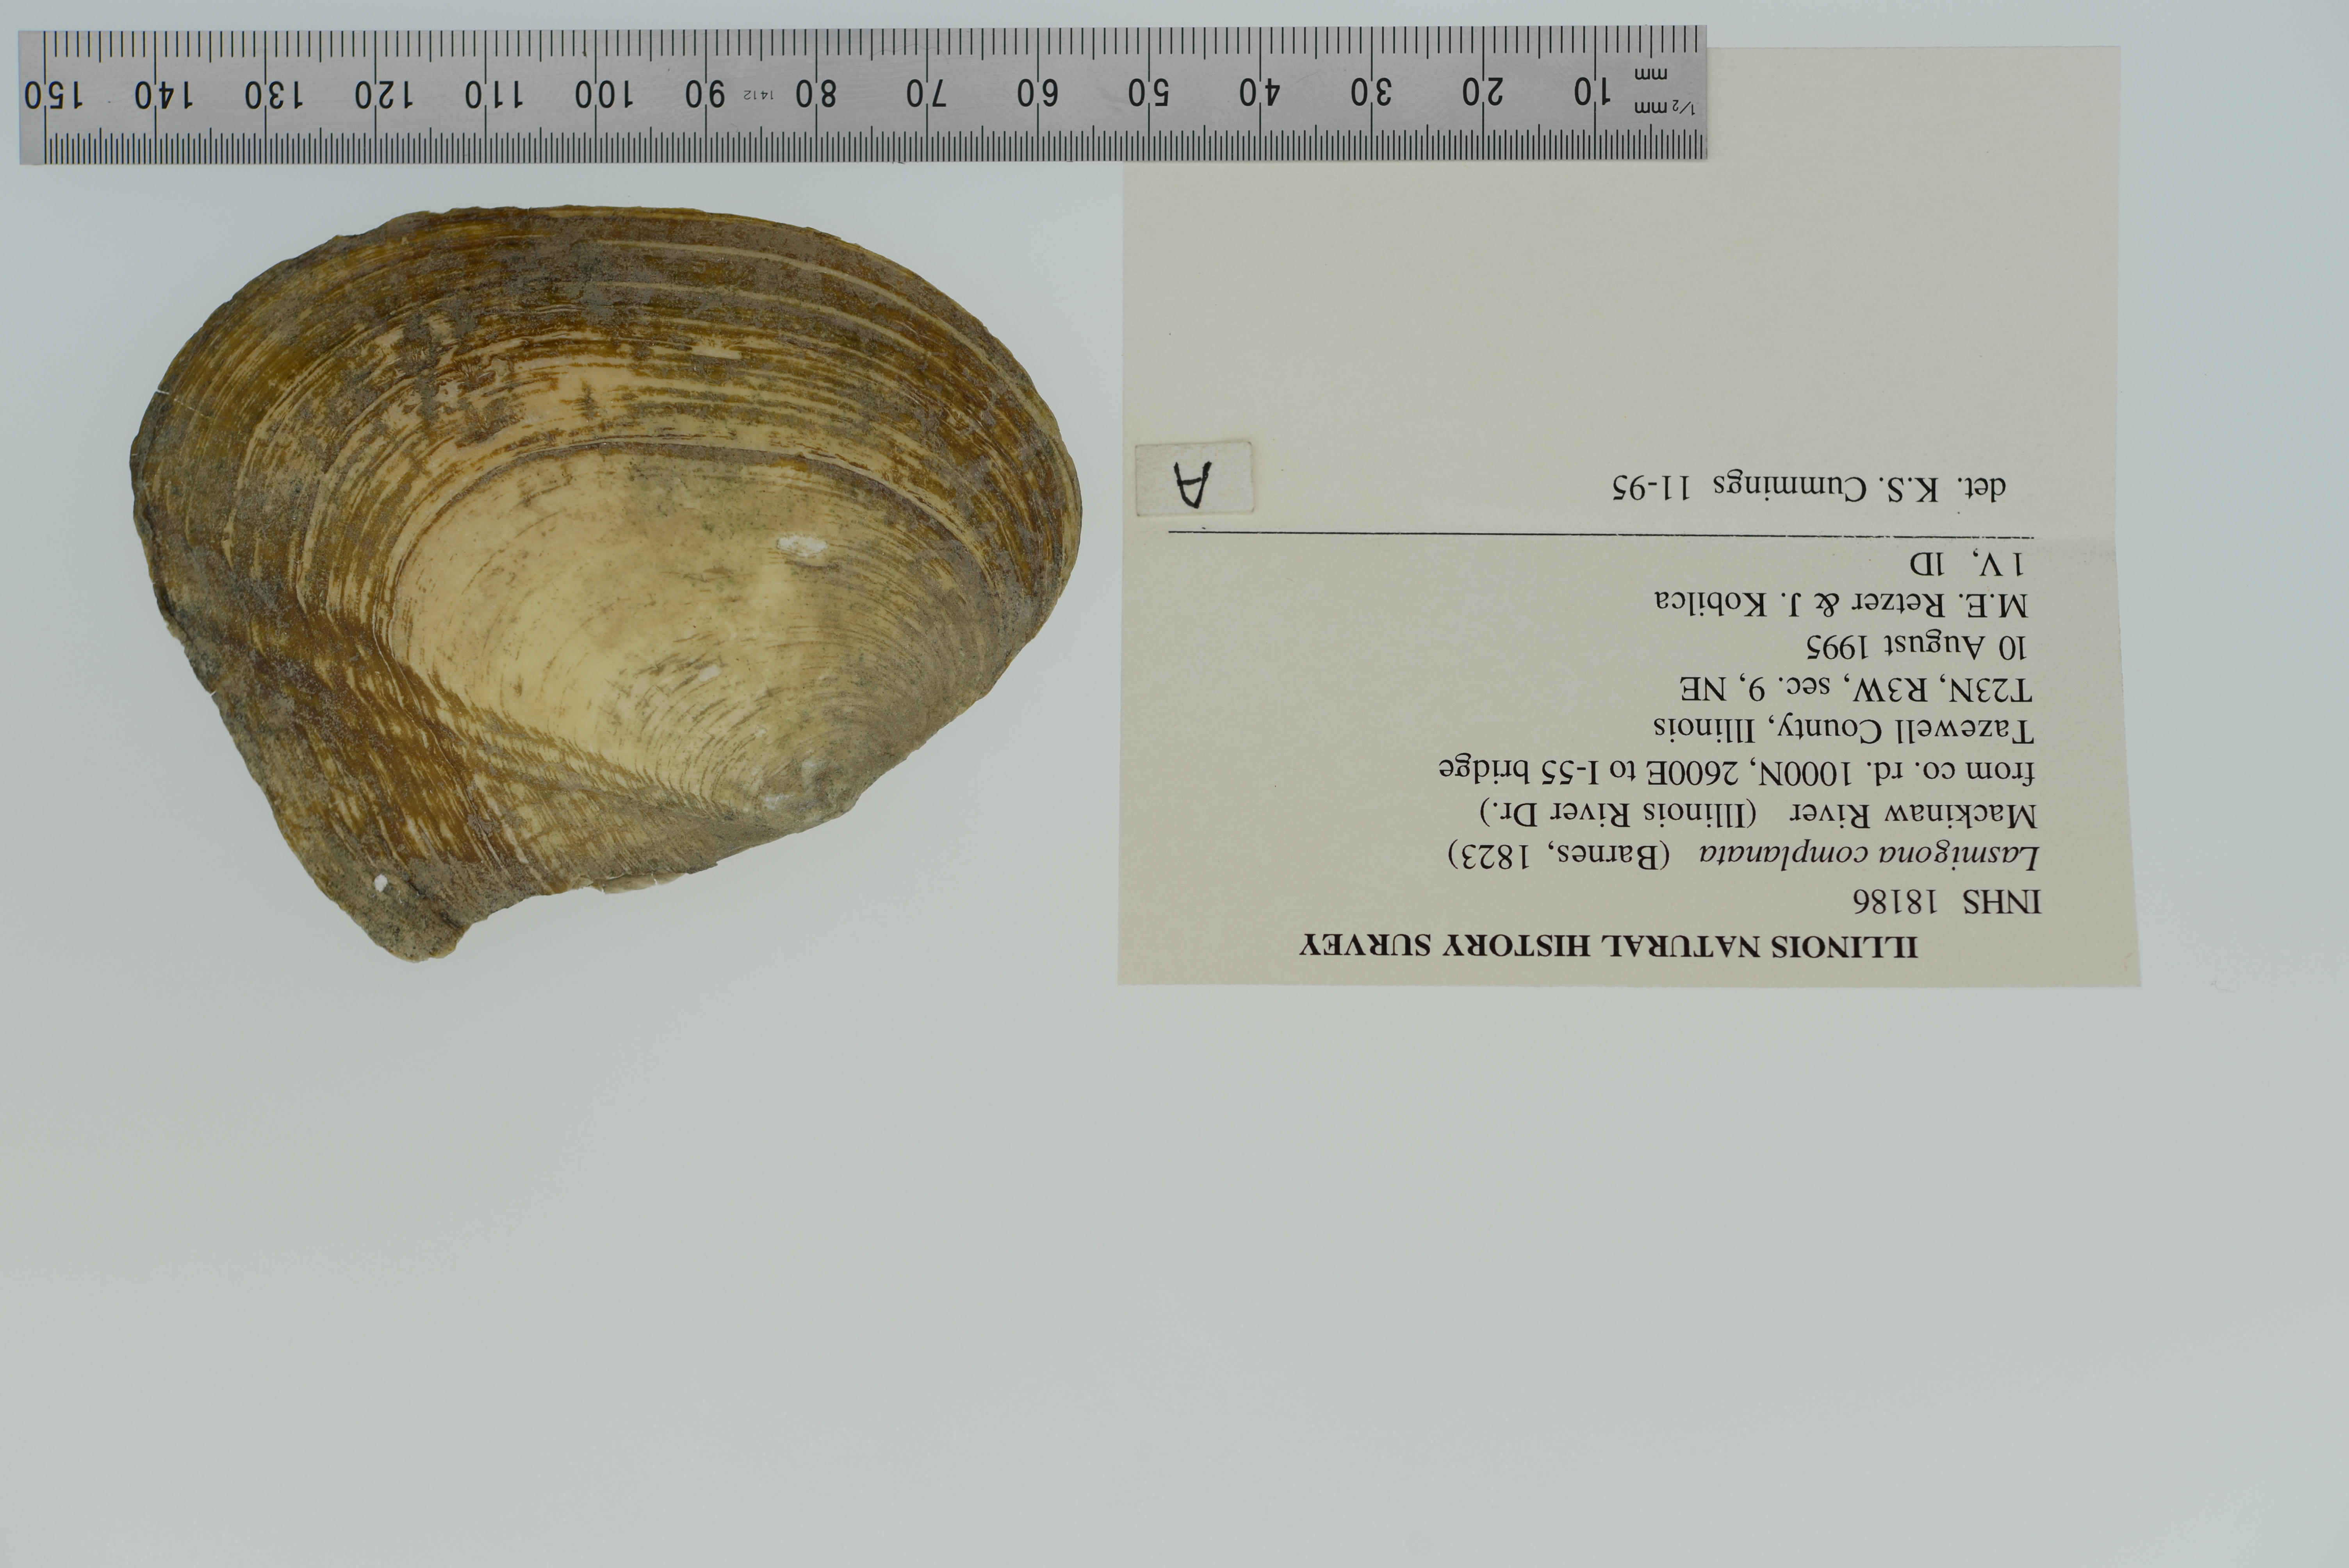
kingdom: Animalia
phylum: Mollusca
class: Bivalvia
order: Unionida
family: Unionidae
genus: Lasmigona
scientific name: Lasmigona complanata
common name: White heelsplitter
